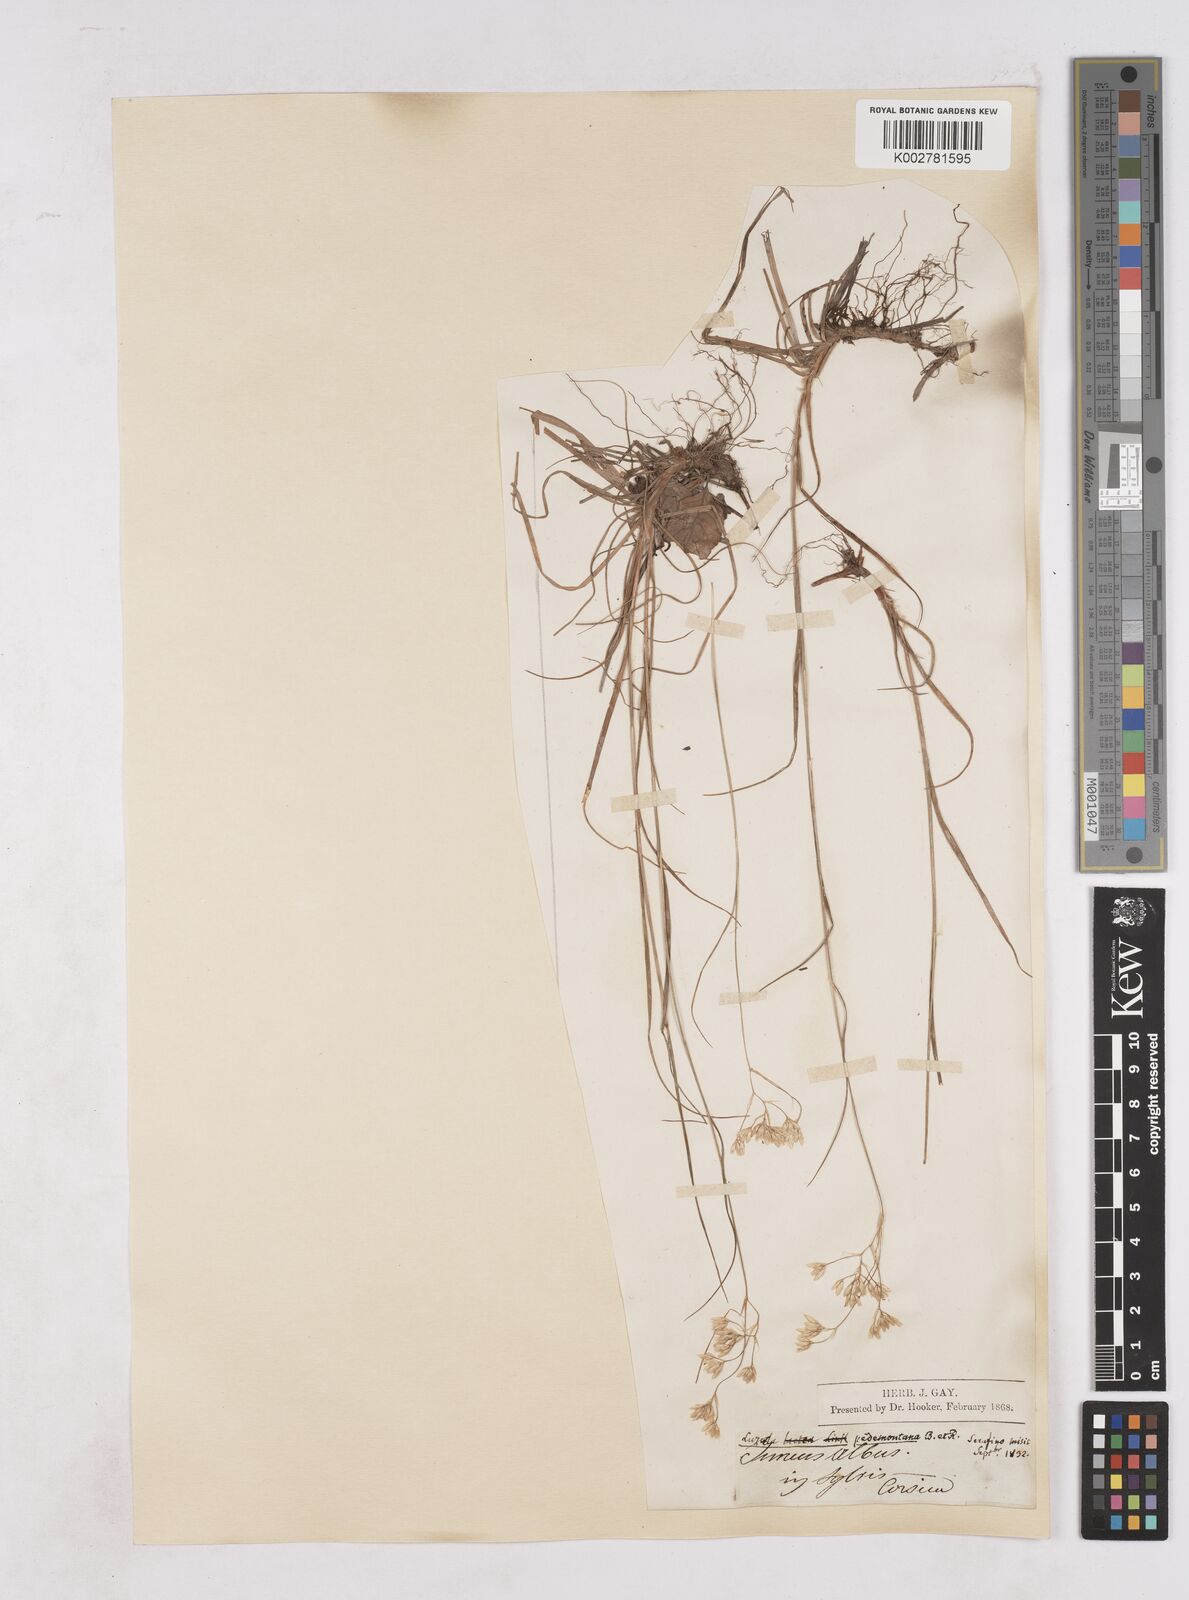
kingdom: Plantae
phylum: Tracheophyta
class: Liliopsida
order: Poales
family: Juncaceae
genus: Luzula
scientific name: Luzula pedemontana
